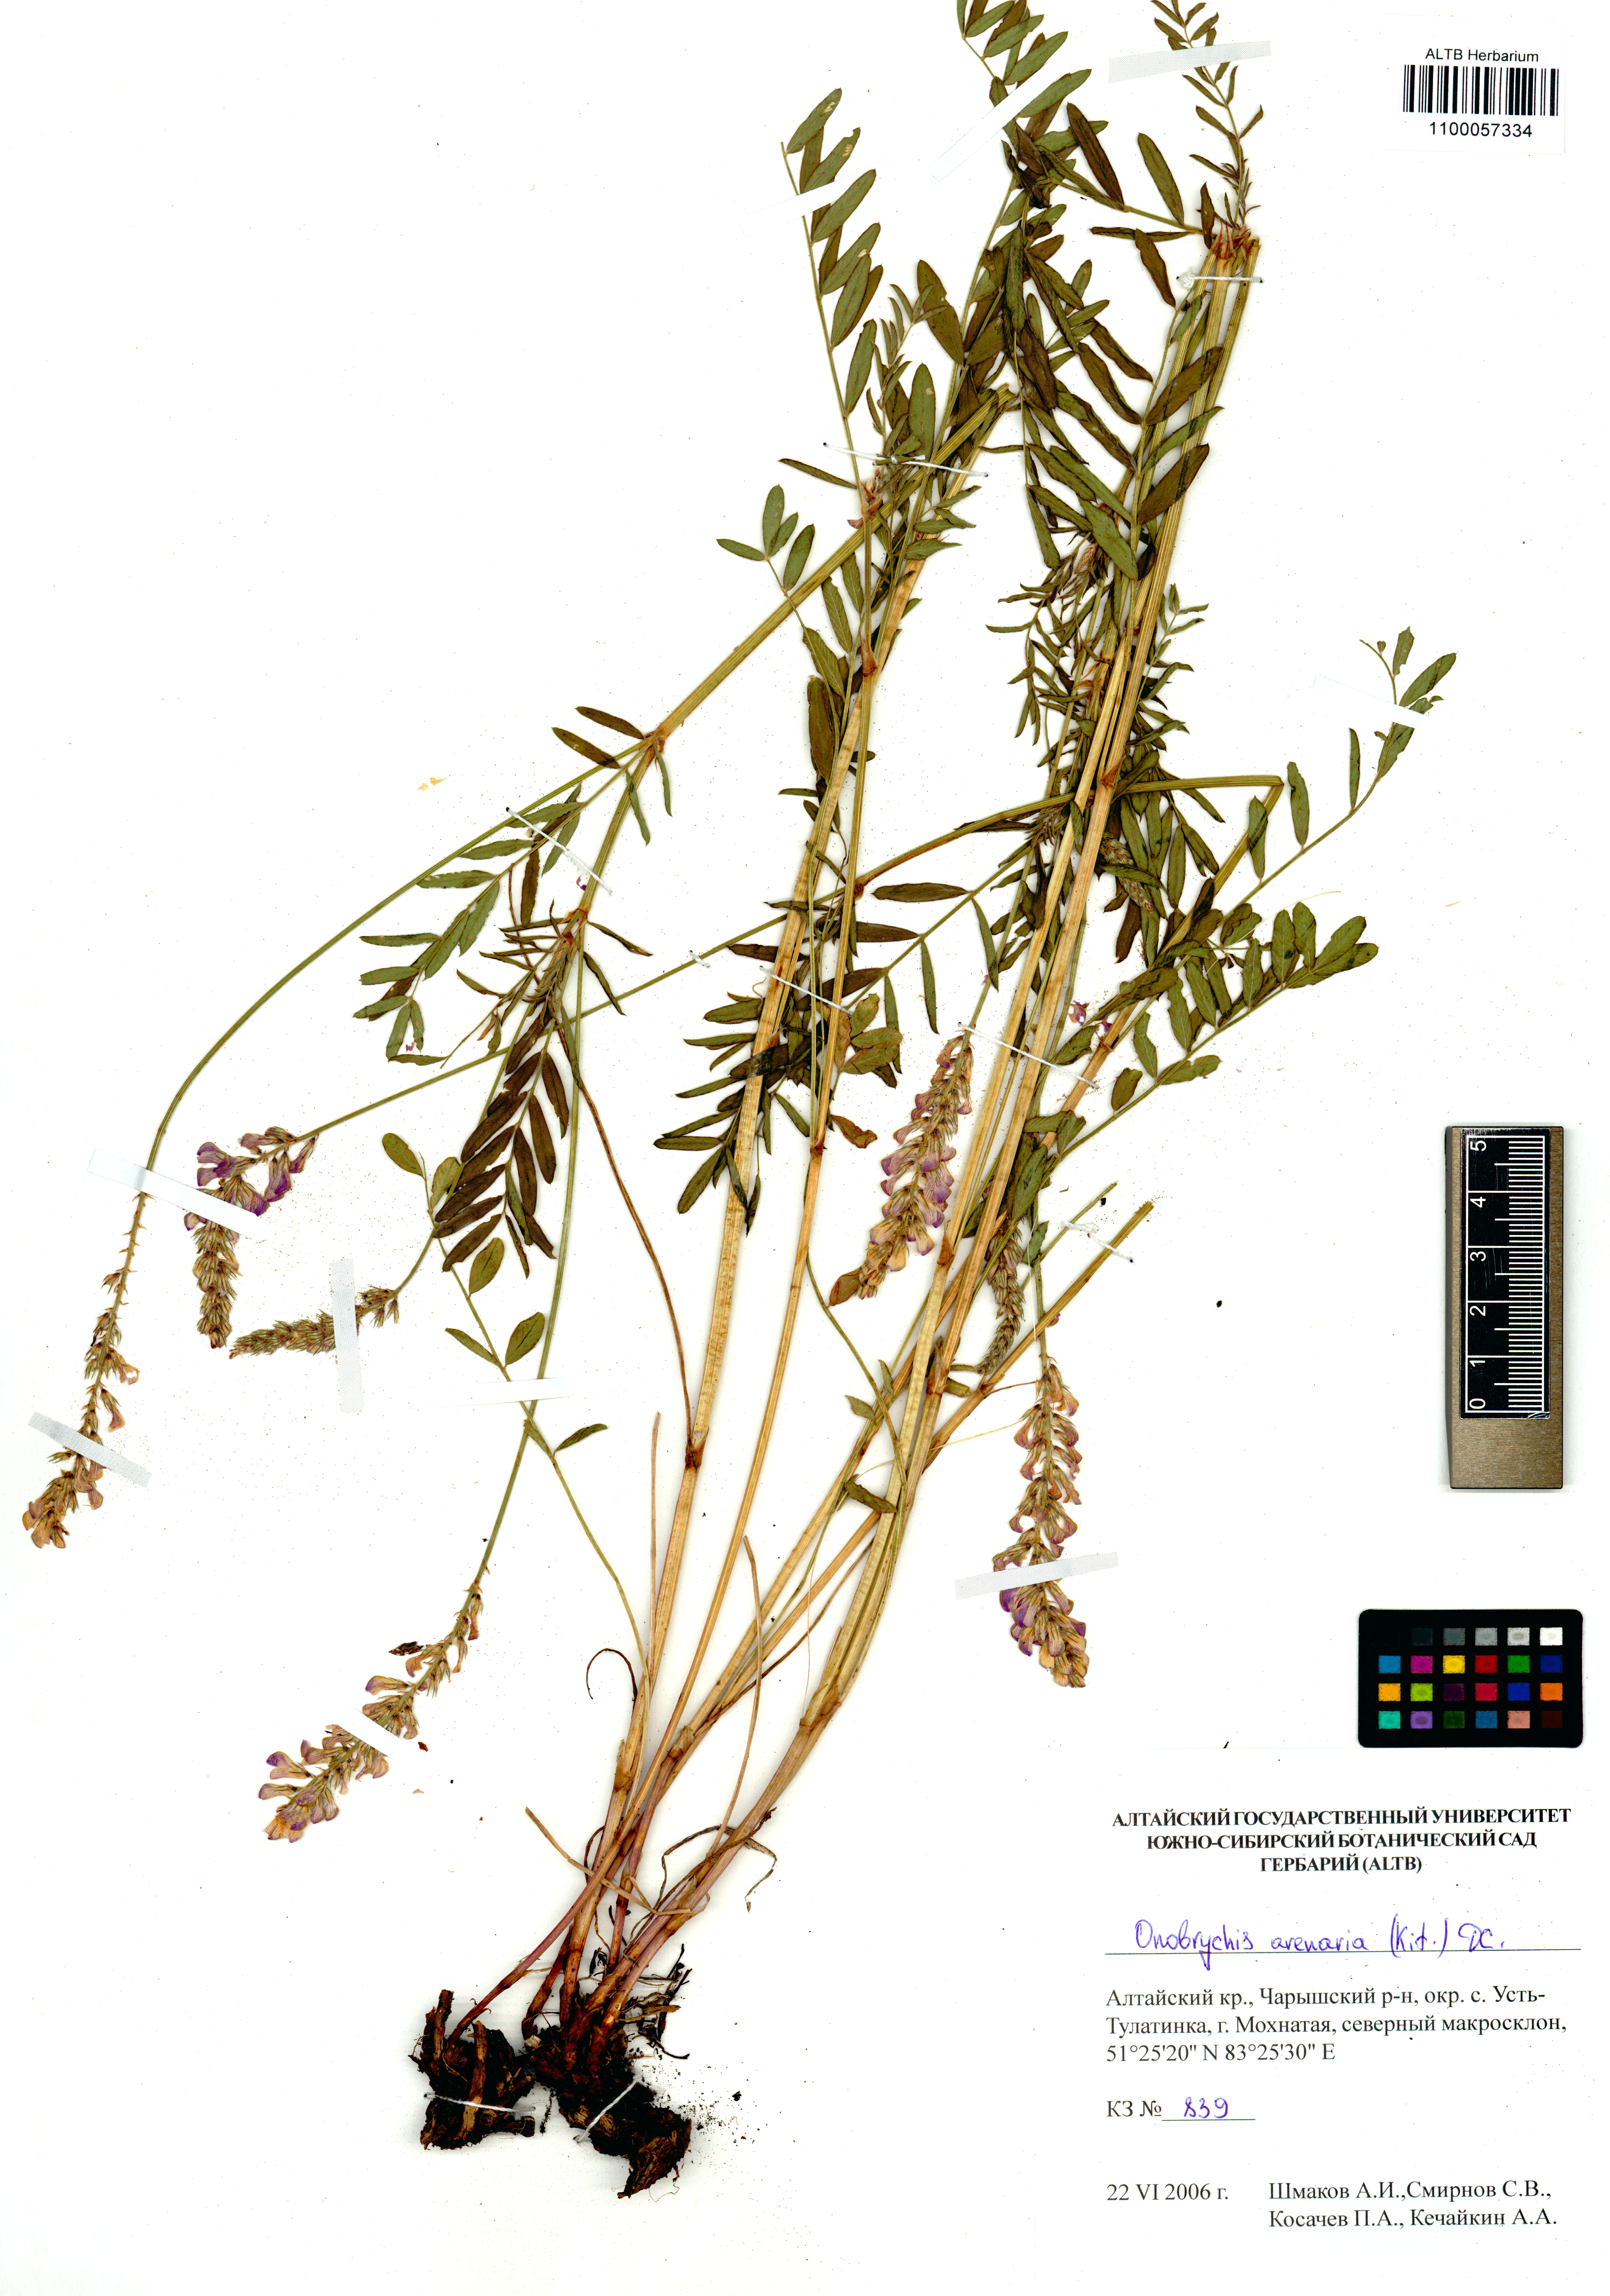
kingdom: Plantae
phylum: Tracheophyta
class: Magnoliopsida
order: Fabales
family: Fabaceae
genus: Onobrychis
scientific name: Onobrychis arenaria
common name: Sand esparcet
